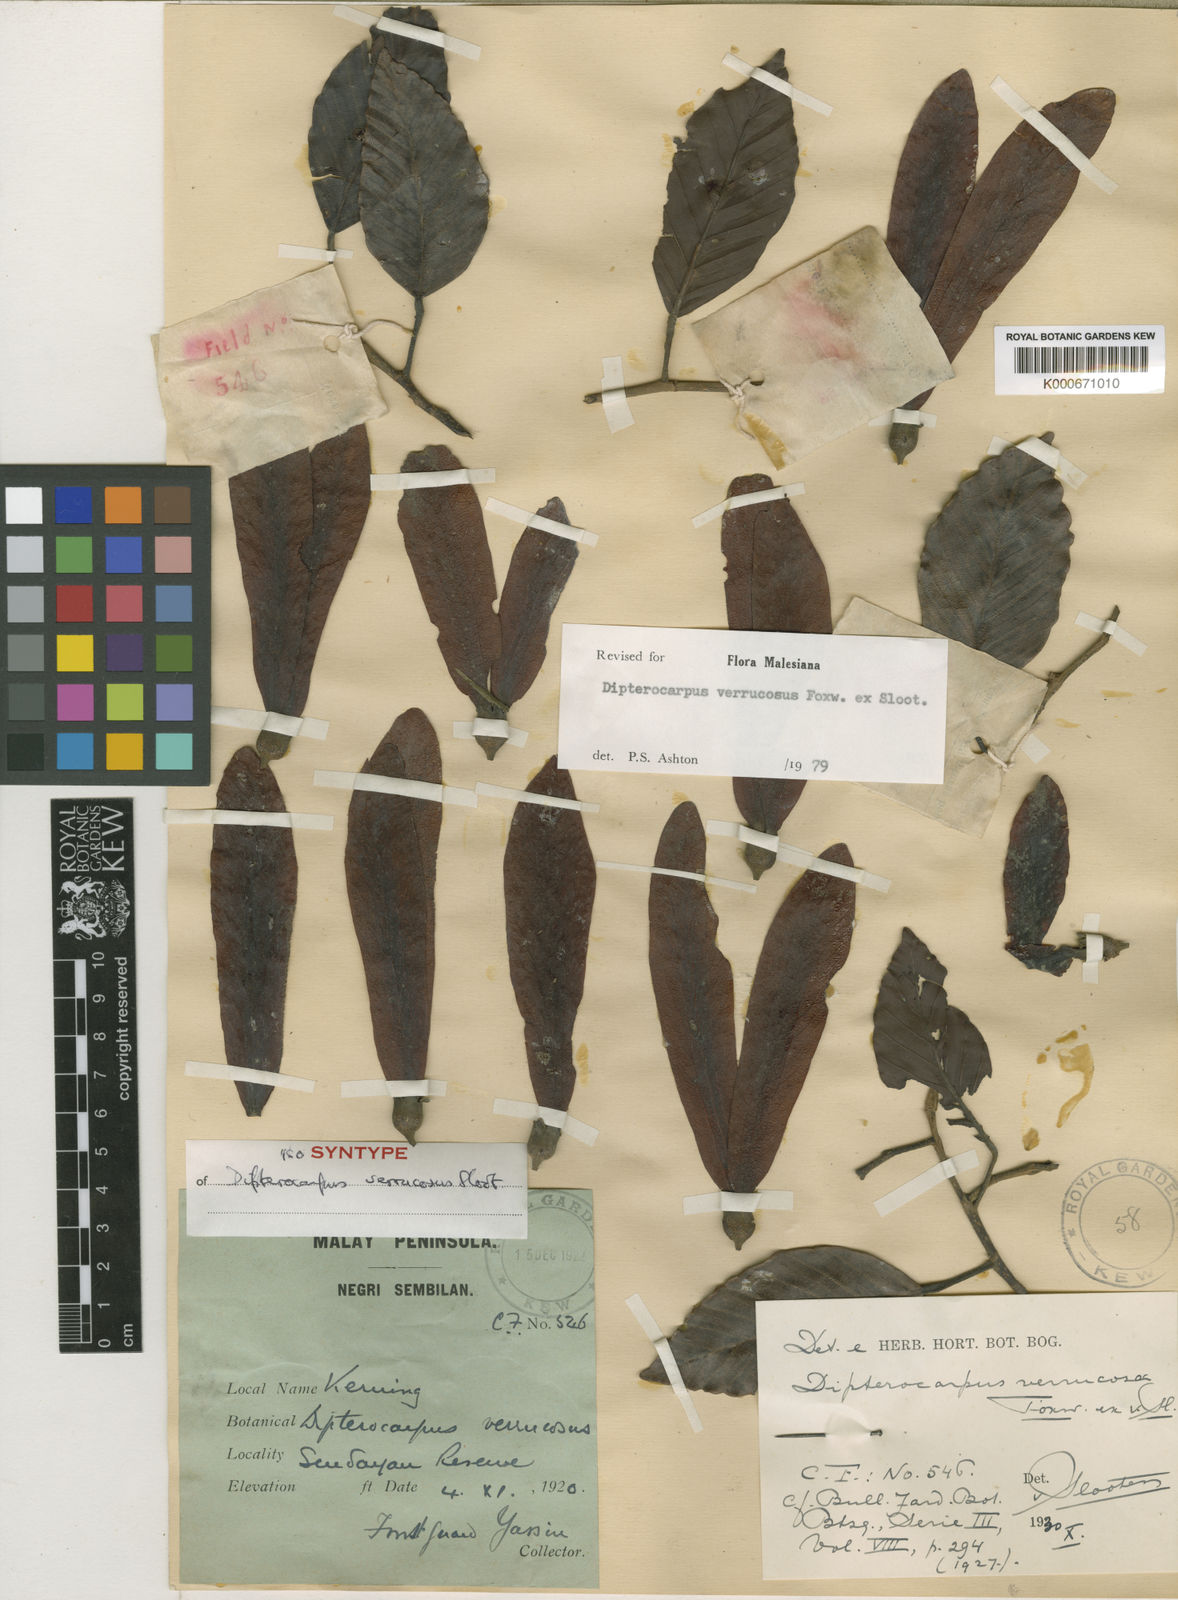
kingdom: Plantae
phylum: Tracheophyta
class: Magnoliopsida
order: Malvales
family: Dipterocarpaceae
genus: Dipterocarpus
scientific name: Dipterocarpus verrucosus
